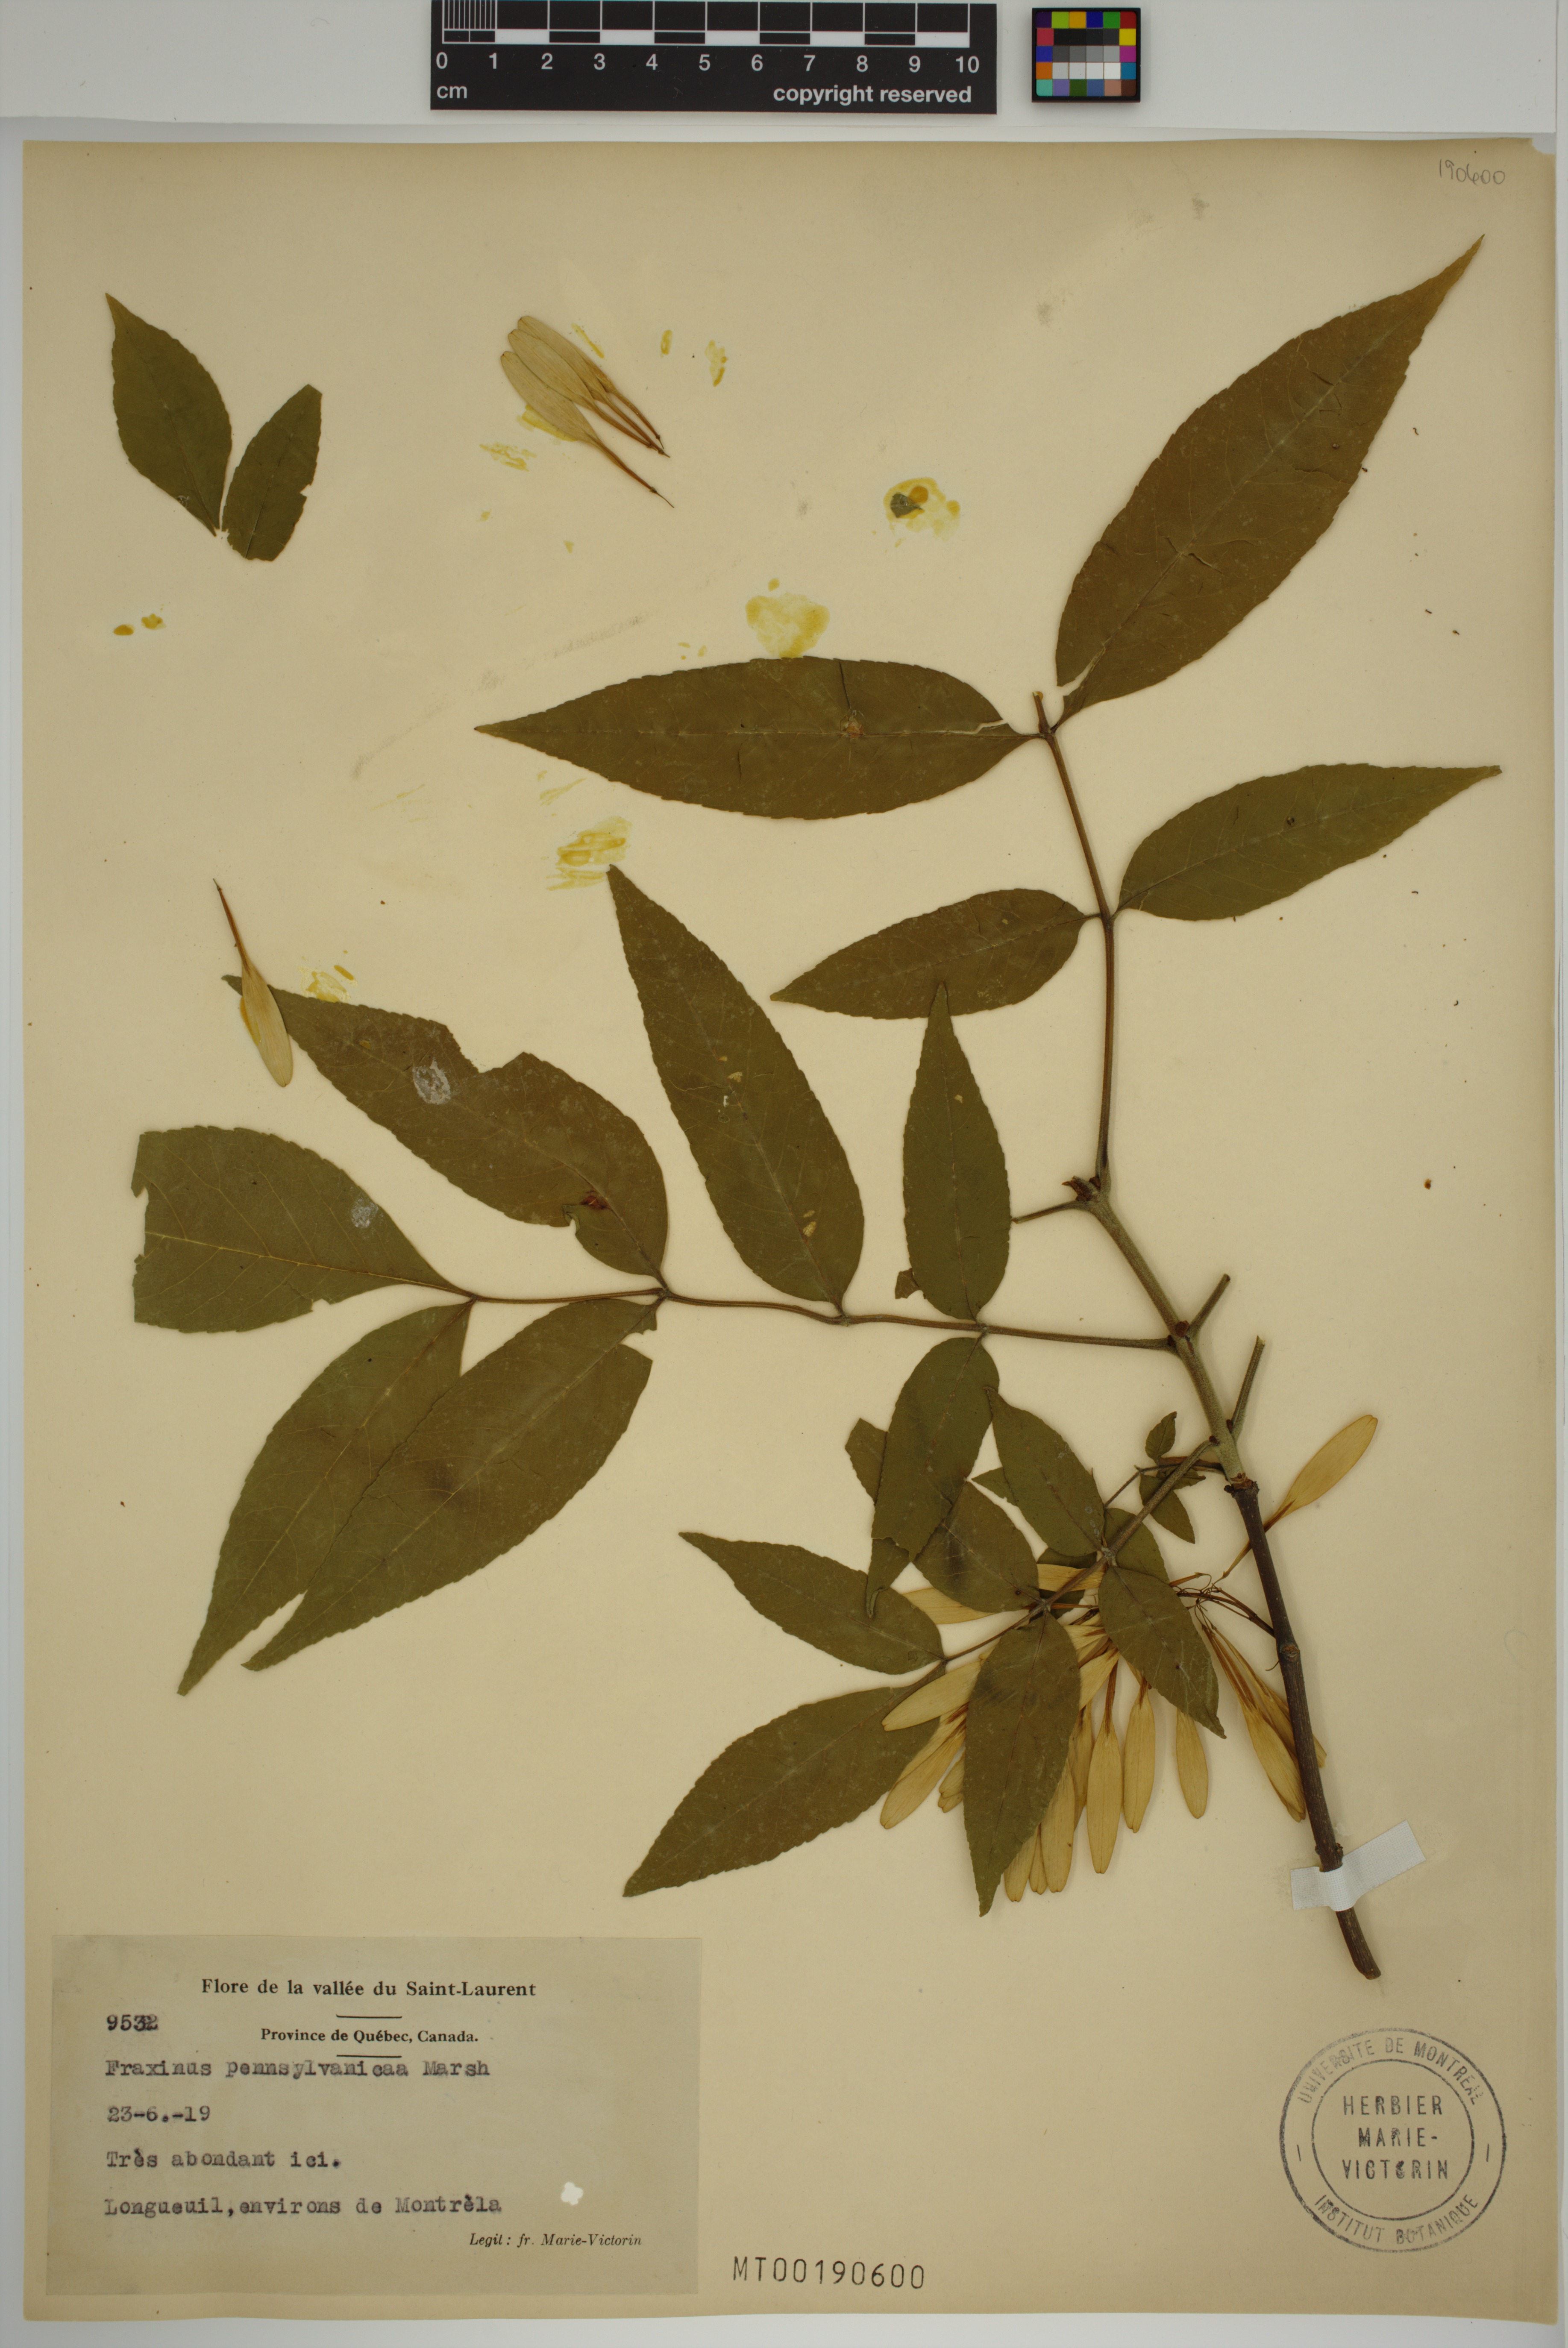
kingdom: Plantae
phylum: Tracheophyta
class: Magnoliopsida
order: Lamiales
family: Oleaceae
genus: Fraxinus
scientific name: Fraxinus pennsylvanica
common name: Green ash
